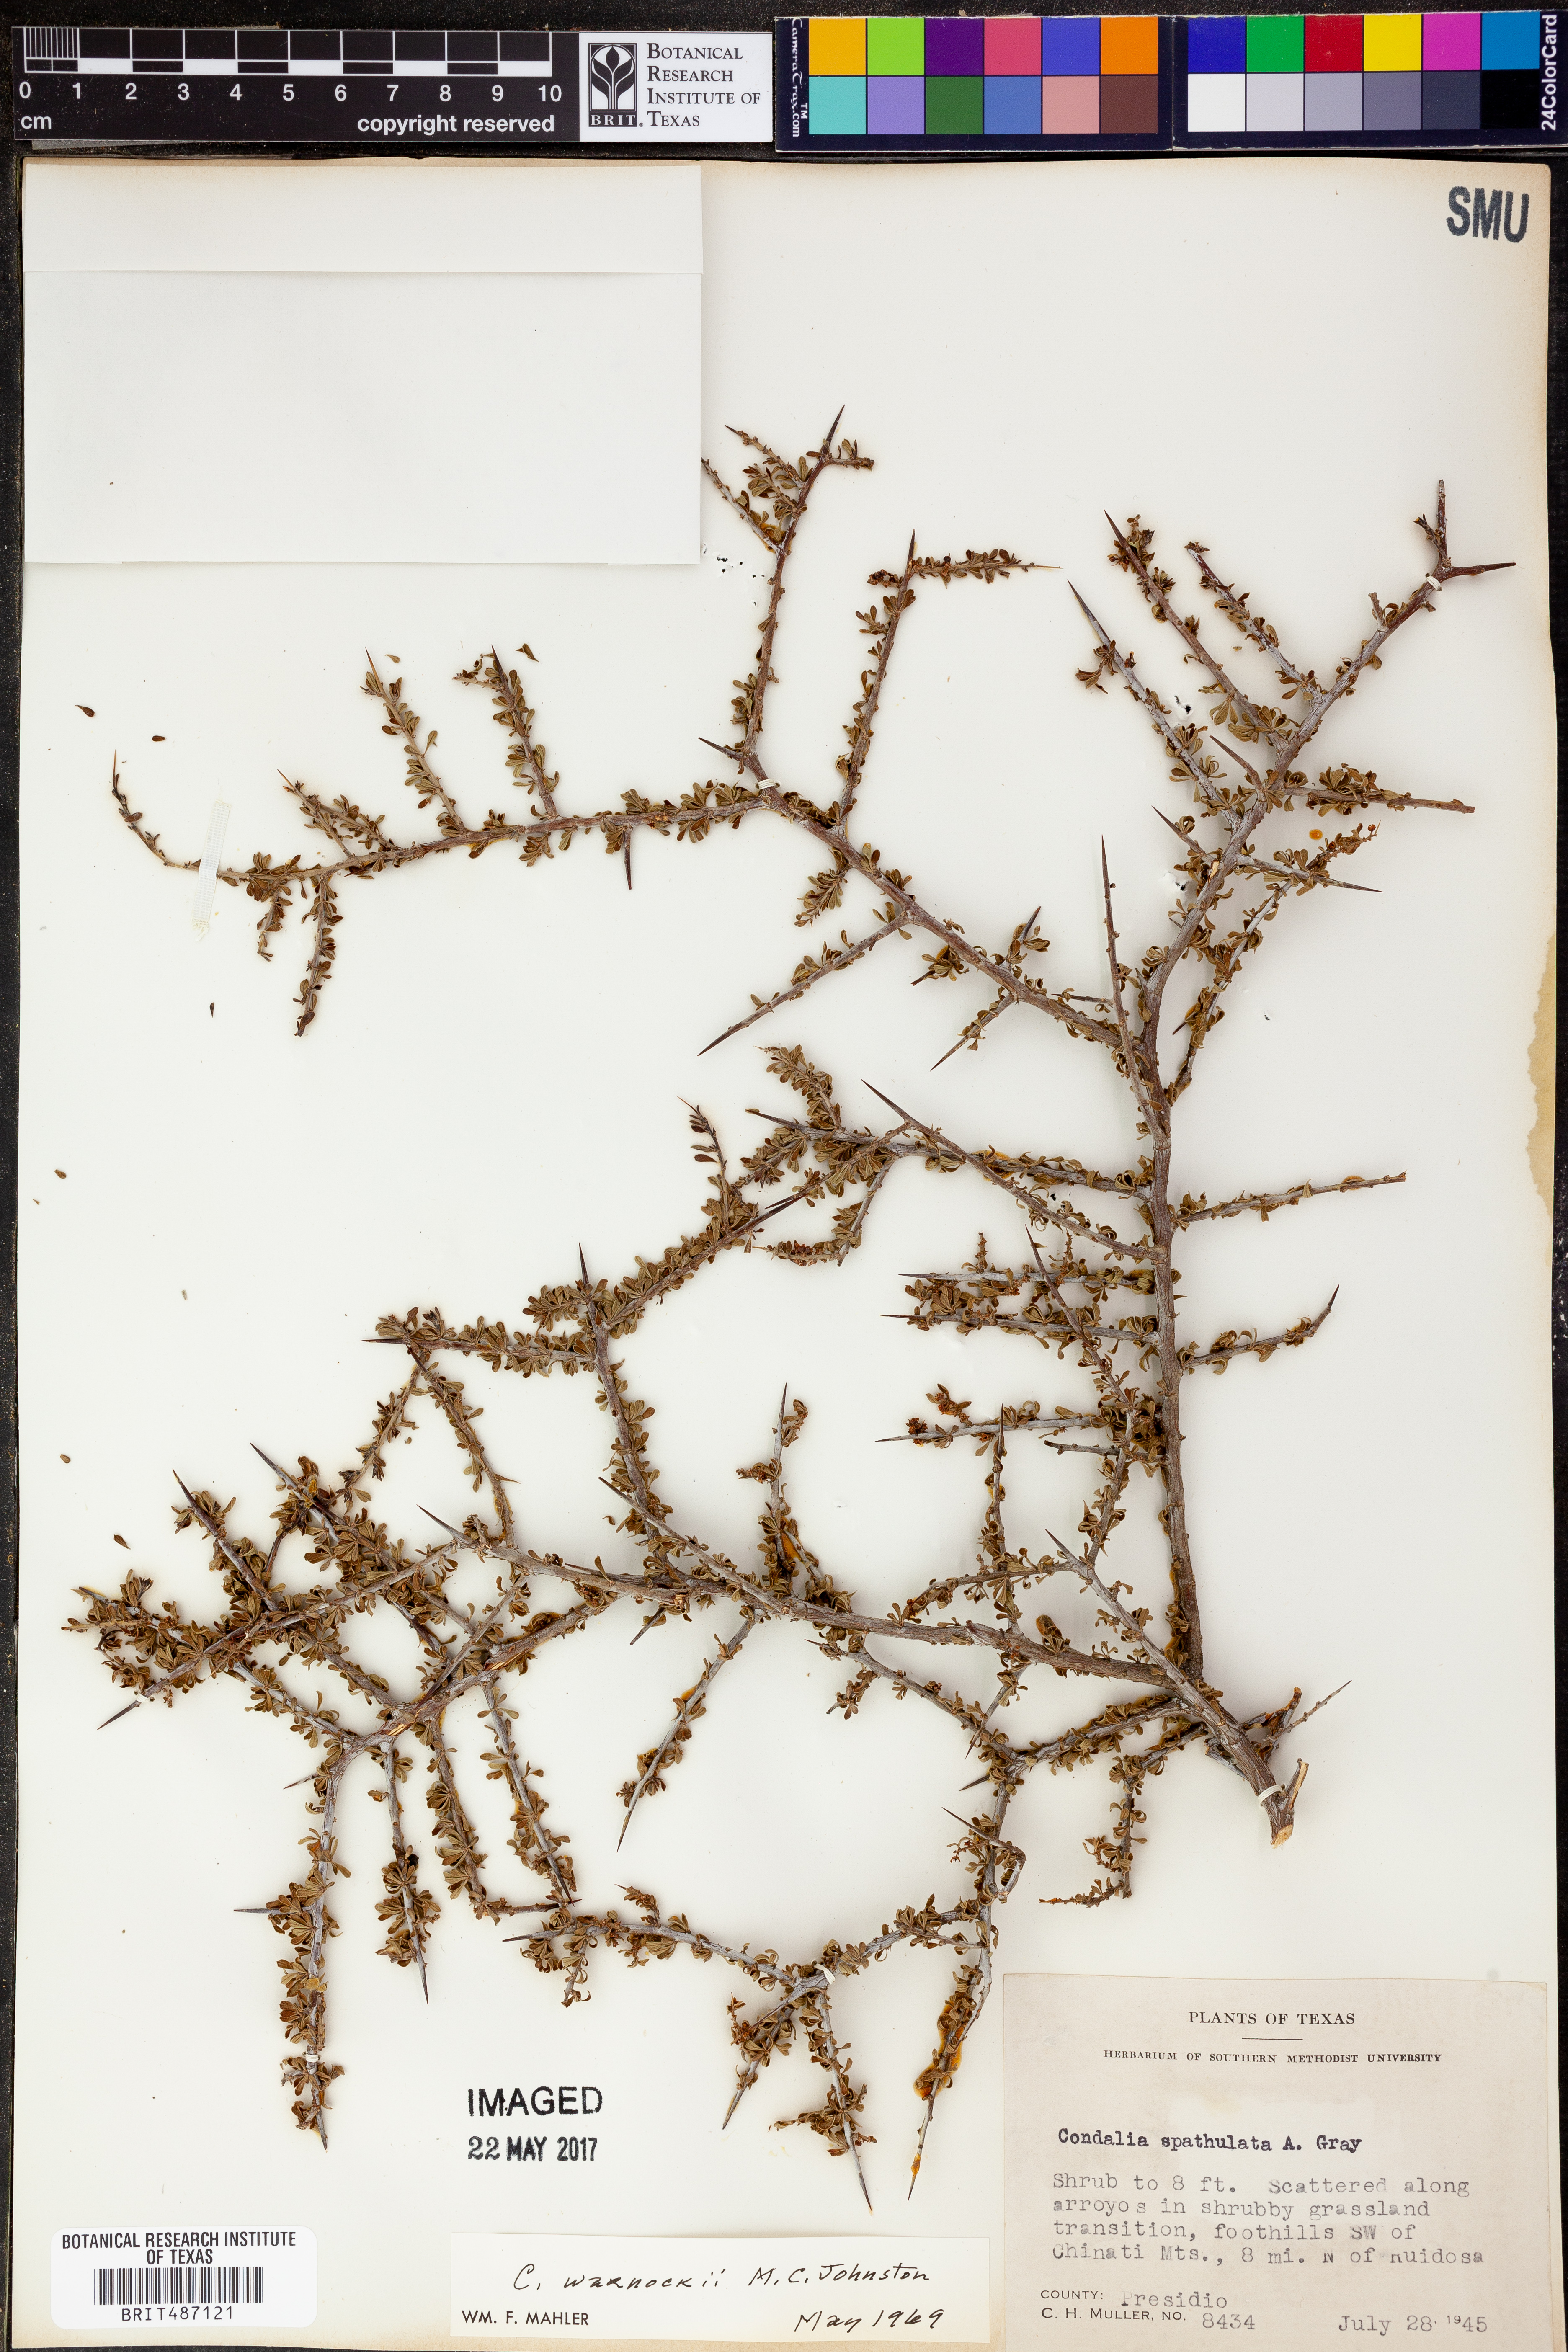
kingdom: Plantae
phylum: Tracheophyta
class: Magnoliopsida
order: Rosales
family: Rhamnaceae
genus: Condalia
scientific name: Condalia warnockii
